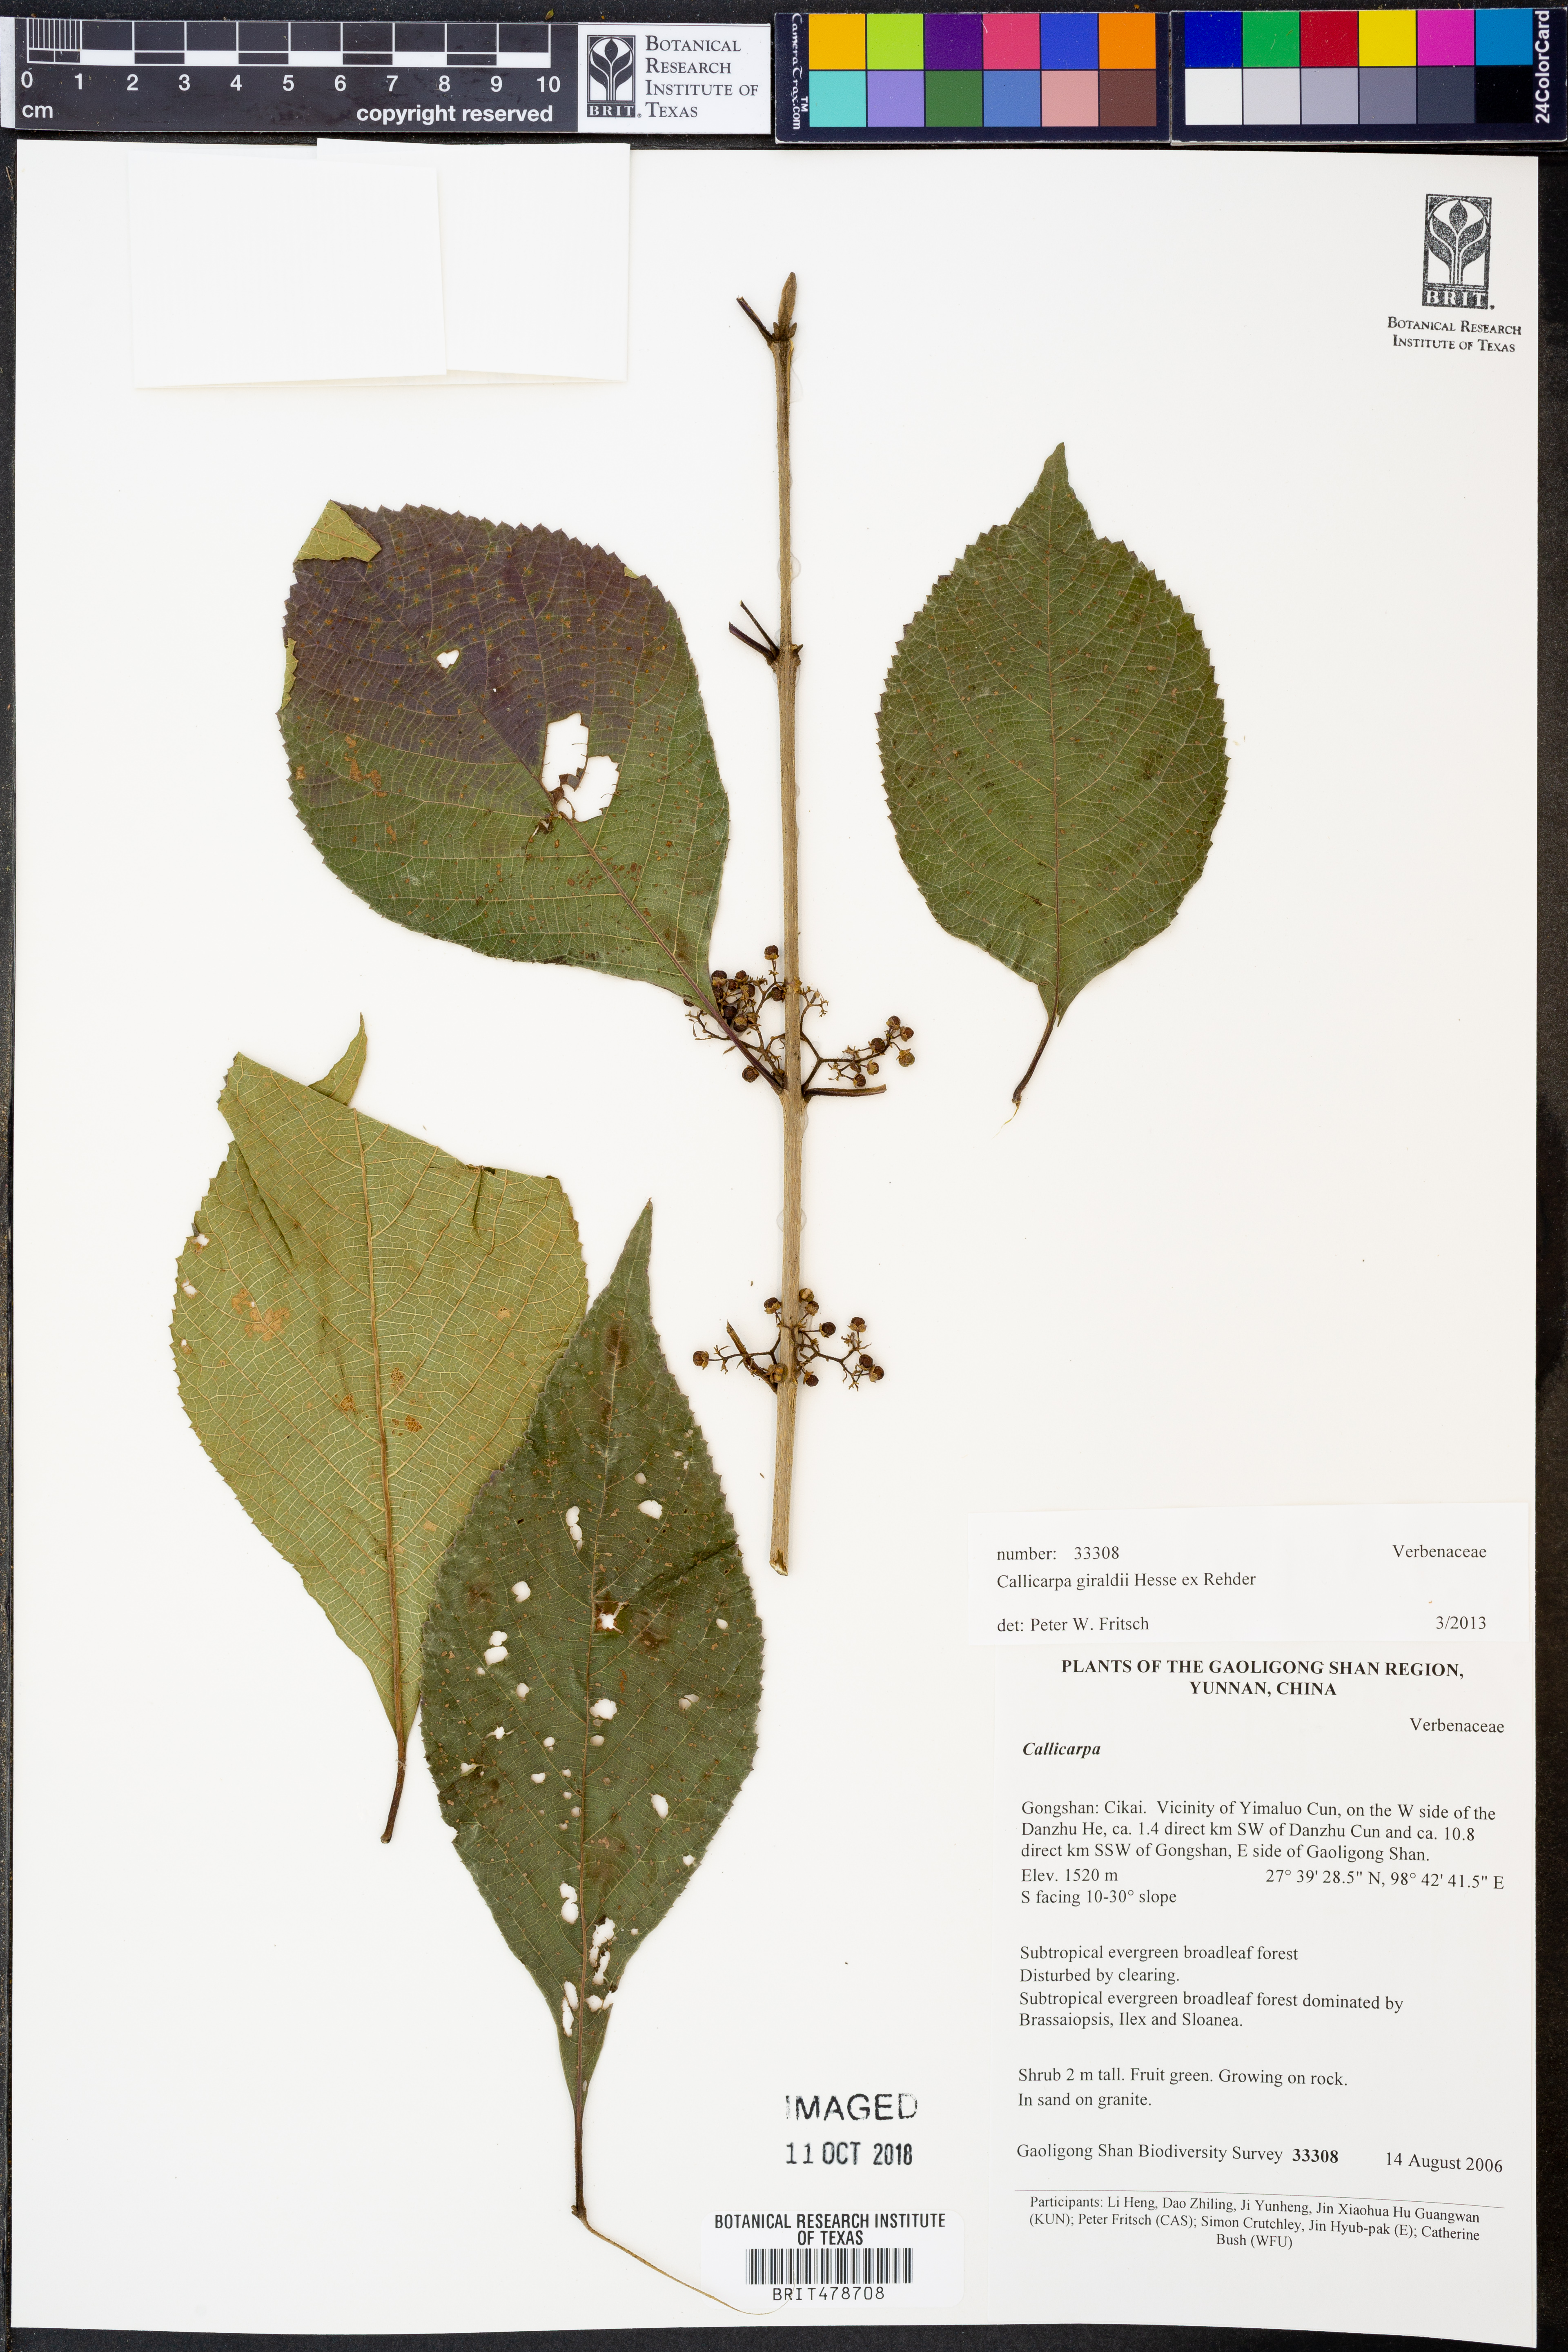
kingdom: Plantae
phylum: Tracheophyta
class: Magnoliopsida
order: Lamiales
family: Lamiaceae
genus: Callicarpa
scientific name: Callicarpa giraldii
